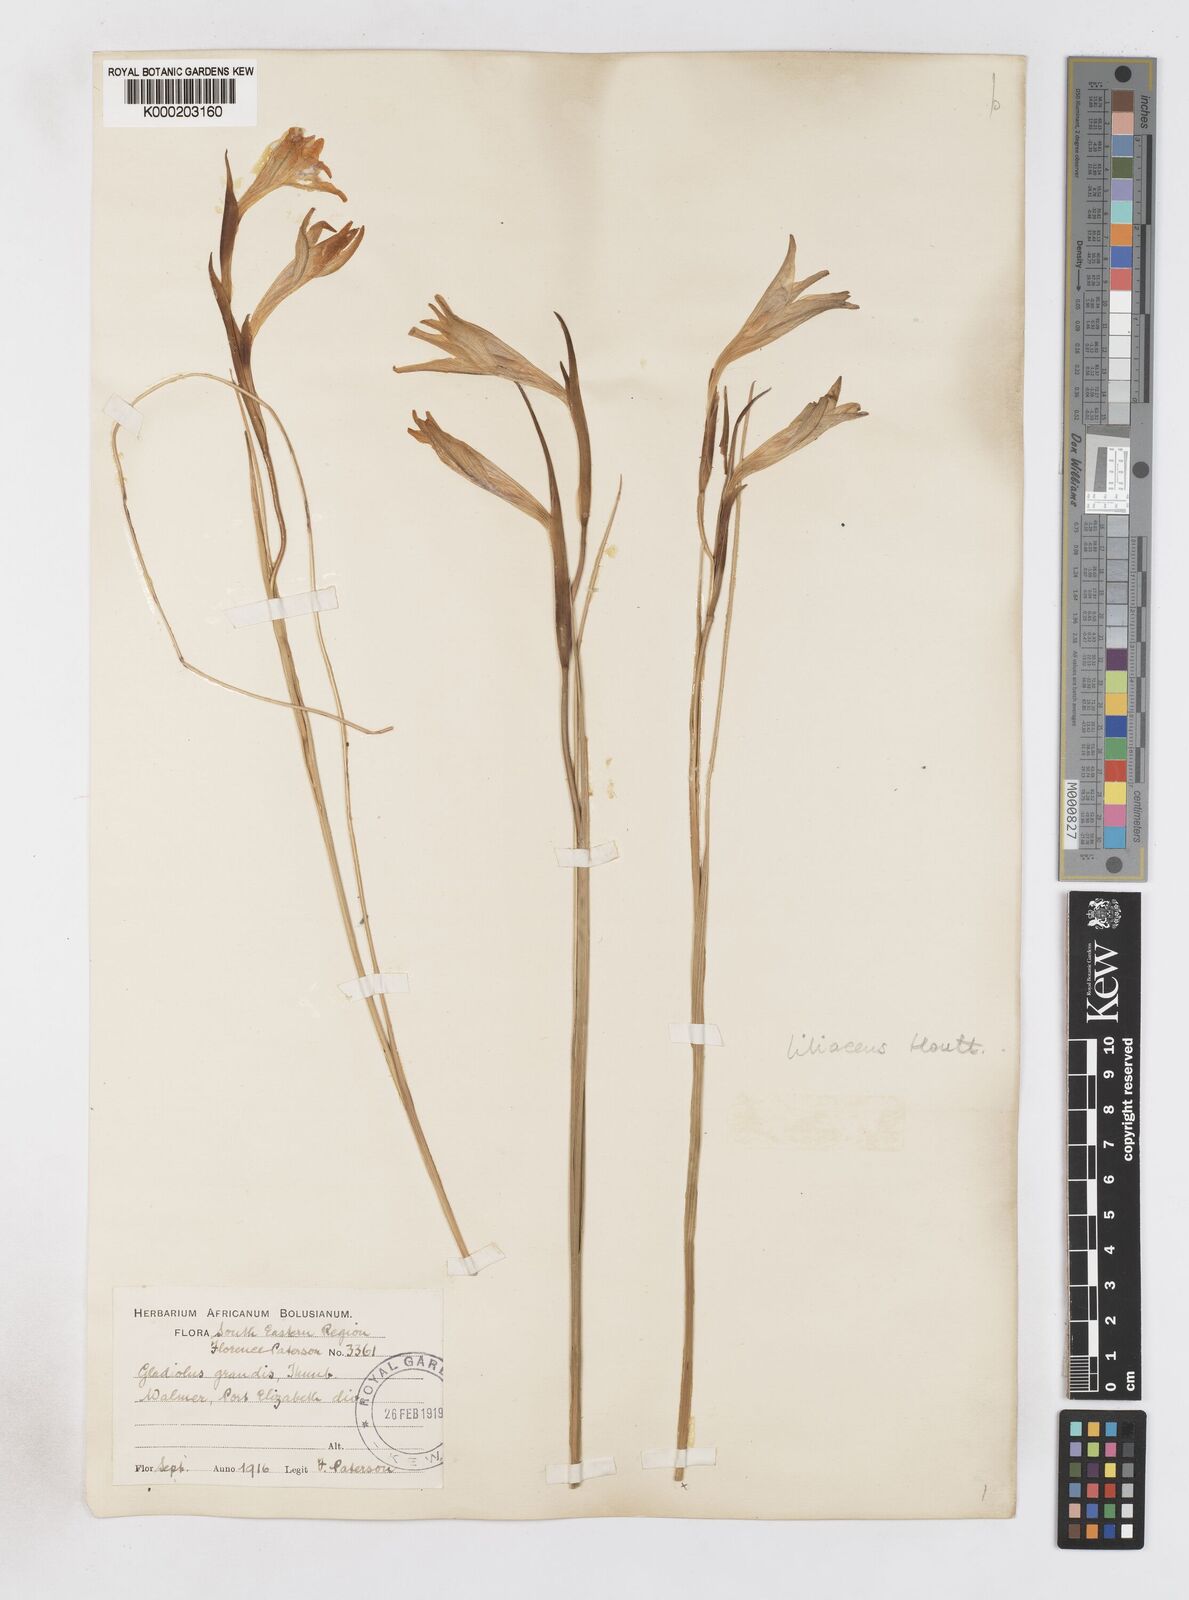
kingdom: Plantae
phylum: Tracheophyta
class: Liliopsida
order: Asparagales
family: Iridaceae
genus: Gladiolus
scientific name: Gladiolus liliaceus
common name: Large brown afrikaner
